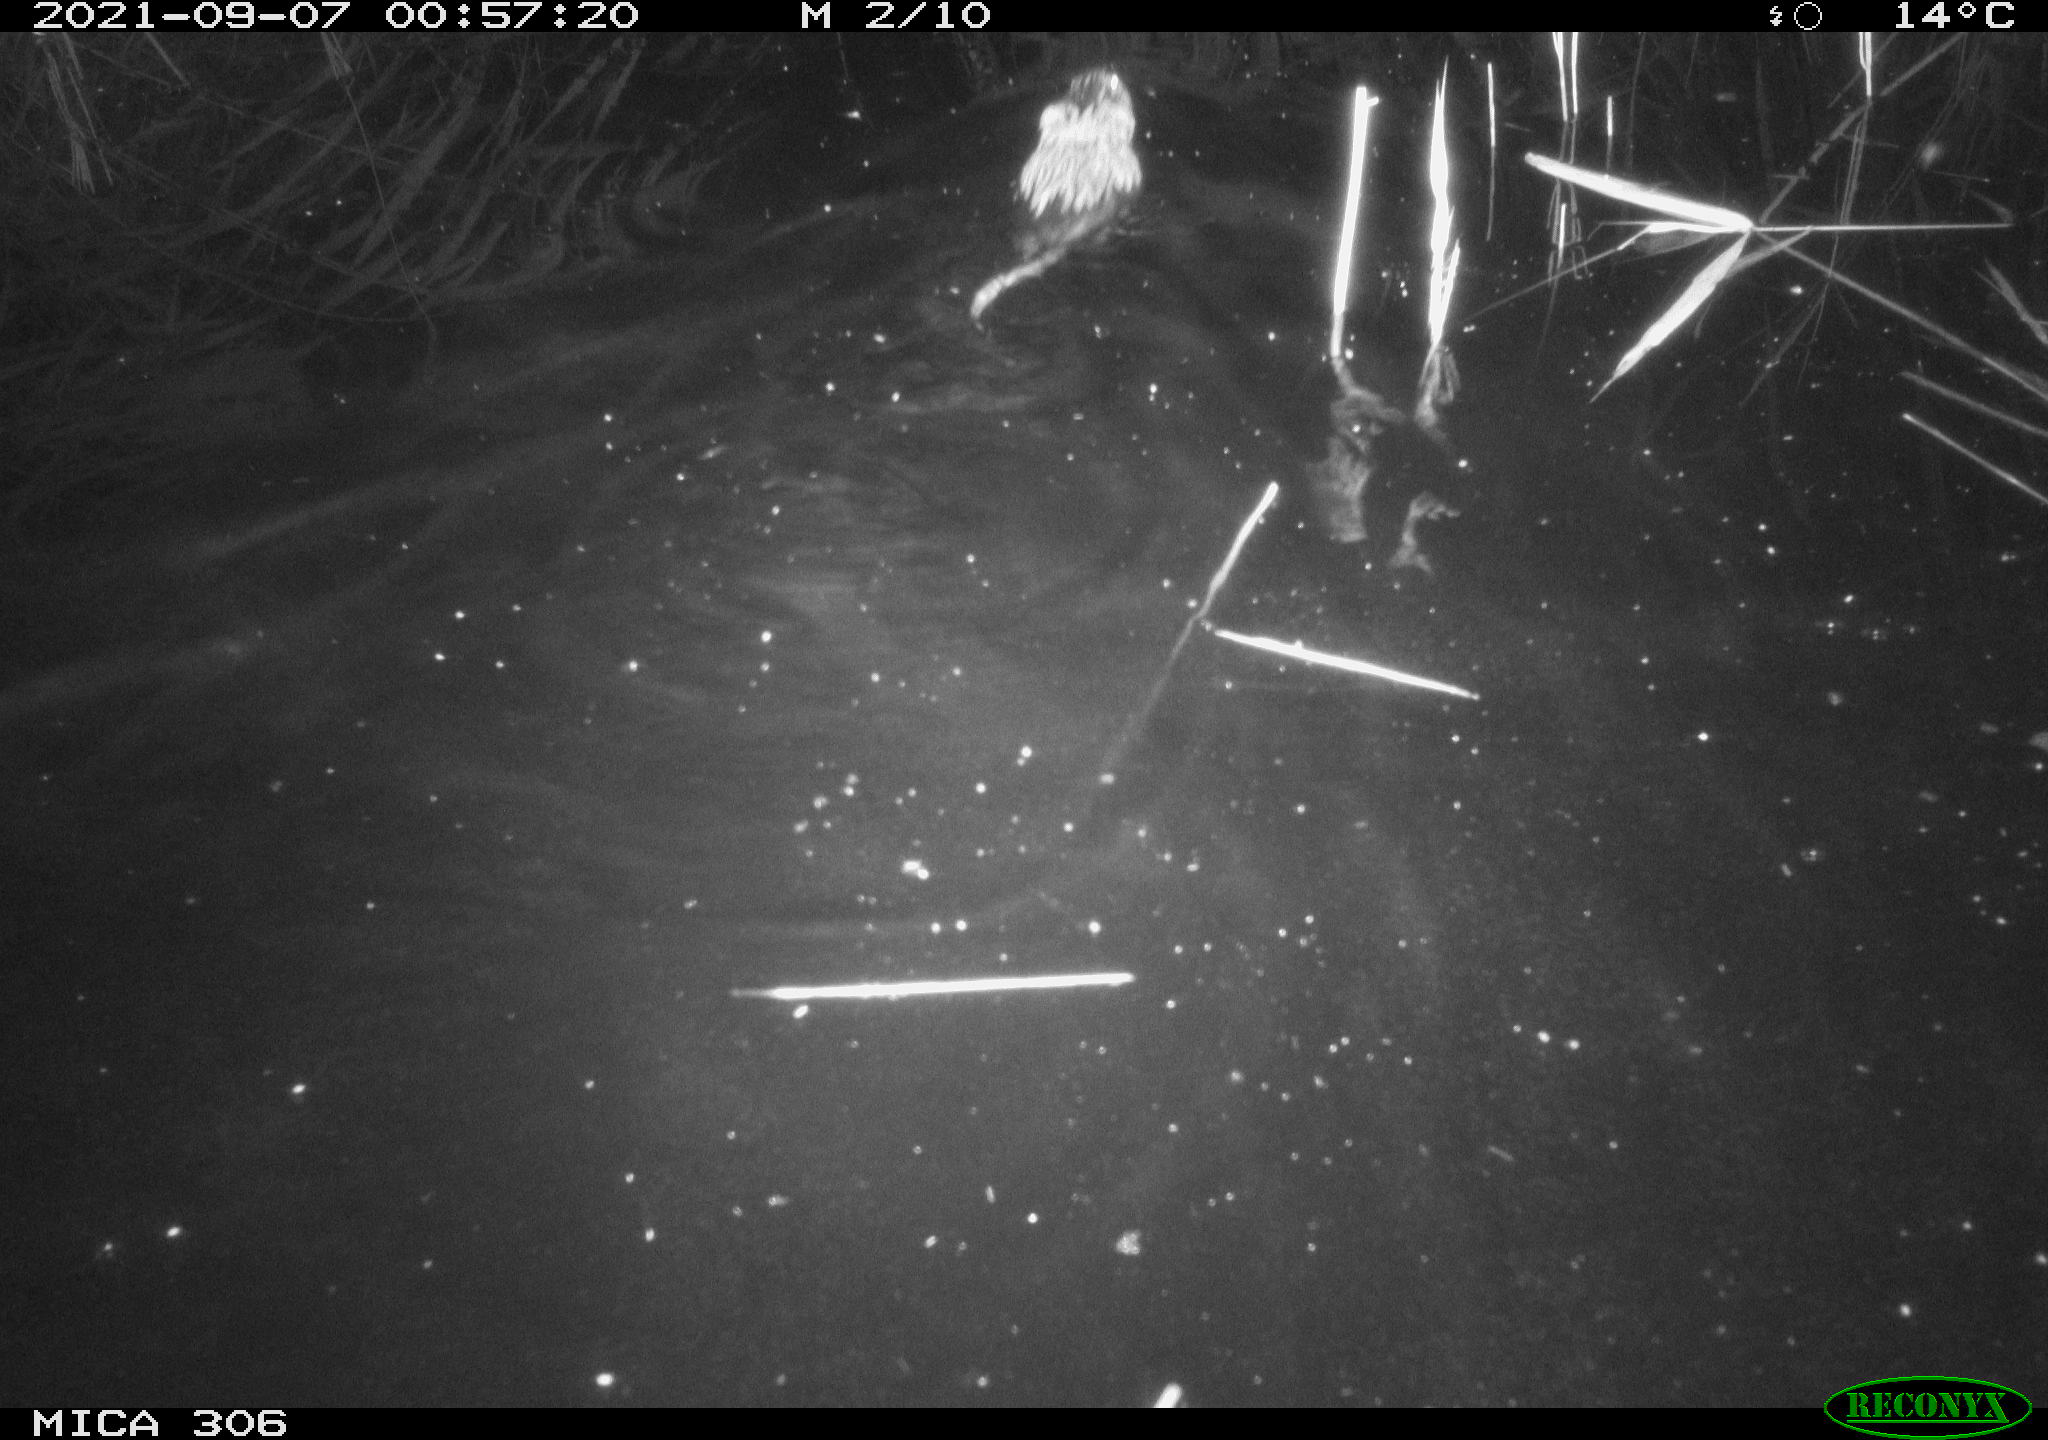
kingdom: Animalia
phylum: Chordata
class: Mammalia
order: Rodentia
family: Cricetidae
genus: Ondatra
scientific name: Ondatra zibethicus
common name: Muskrat
